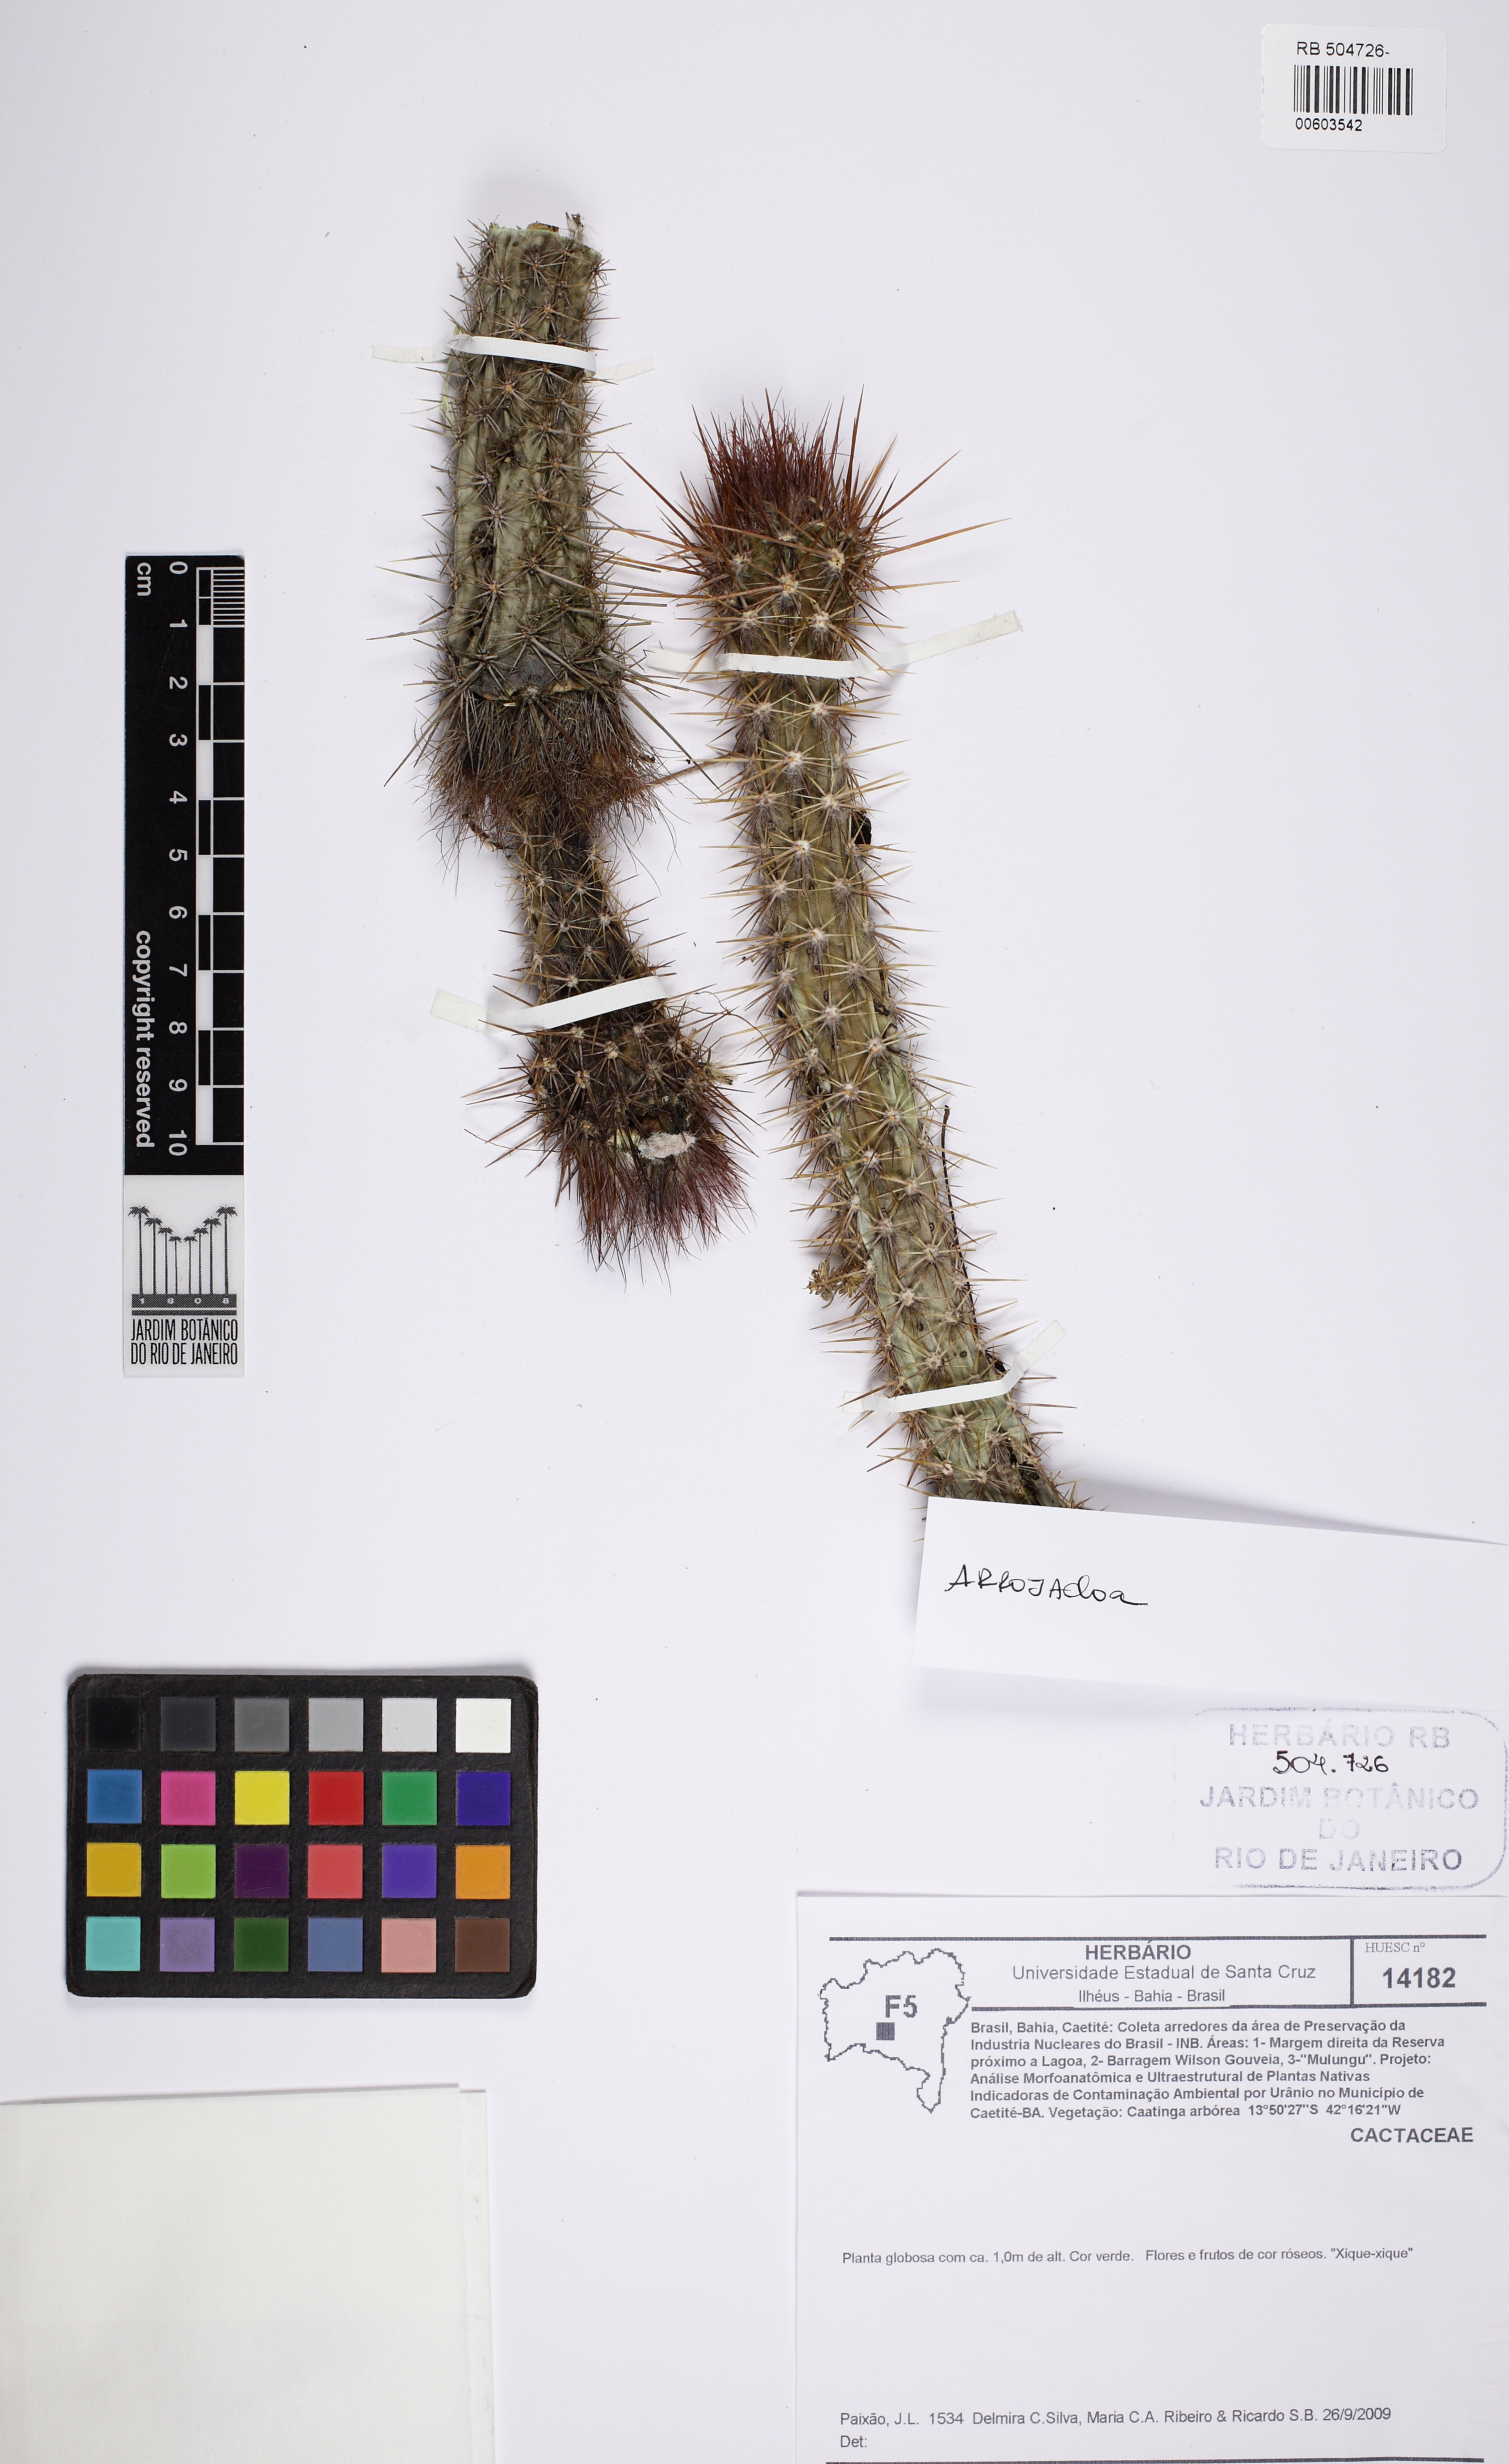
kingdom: Plantae
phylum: Tracheophyta
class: Magnoliopsida
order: Caryophyllales
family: Cactaceae
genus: Arrojadoa
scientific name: Arrojadoa rhodantha
